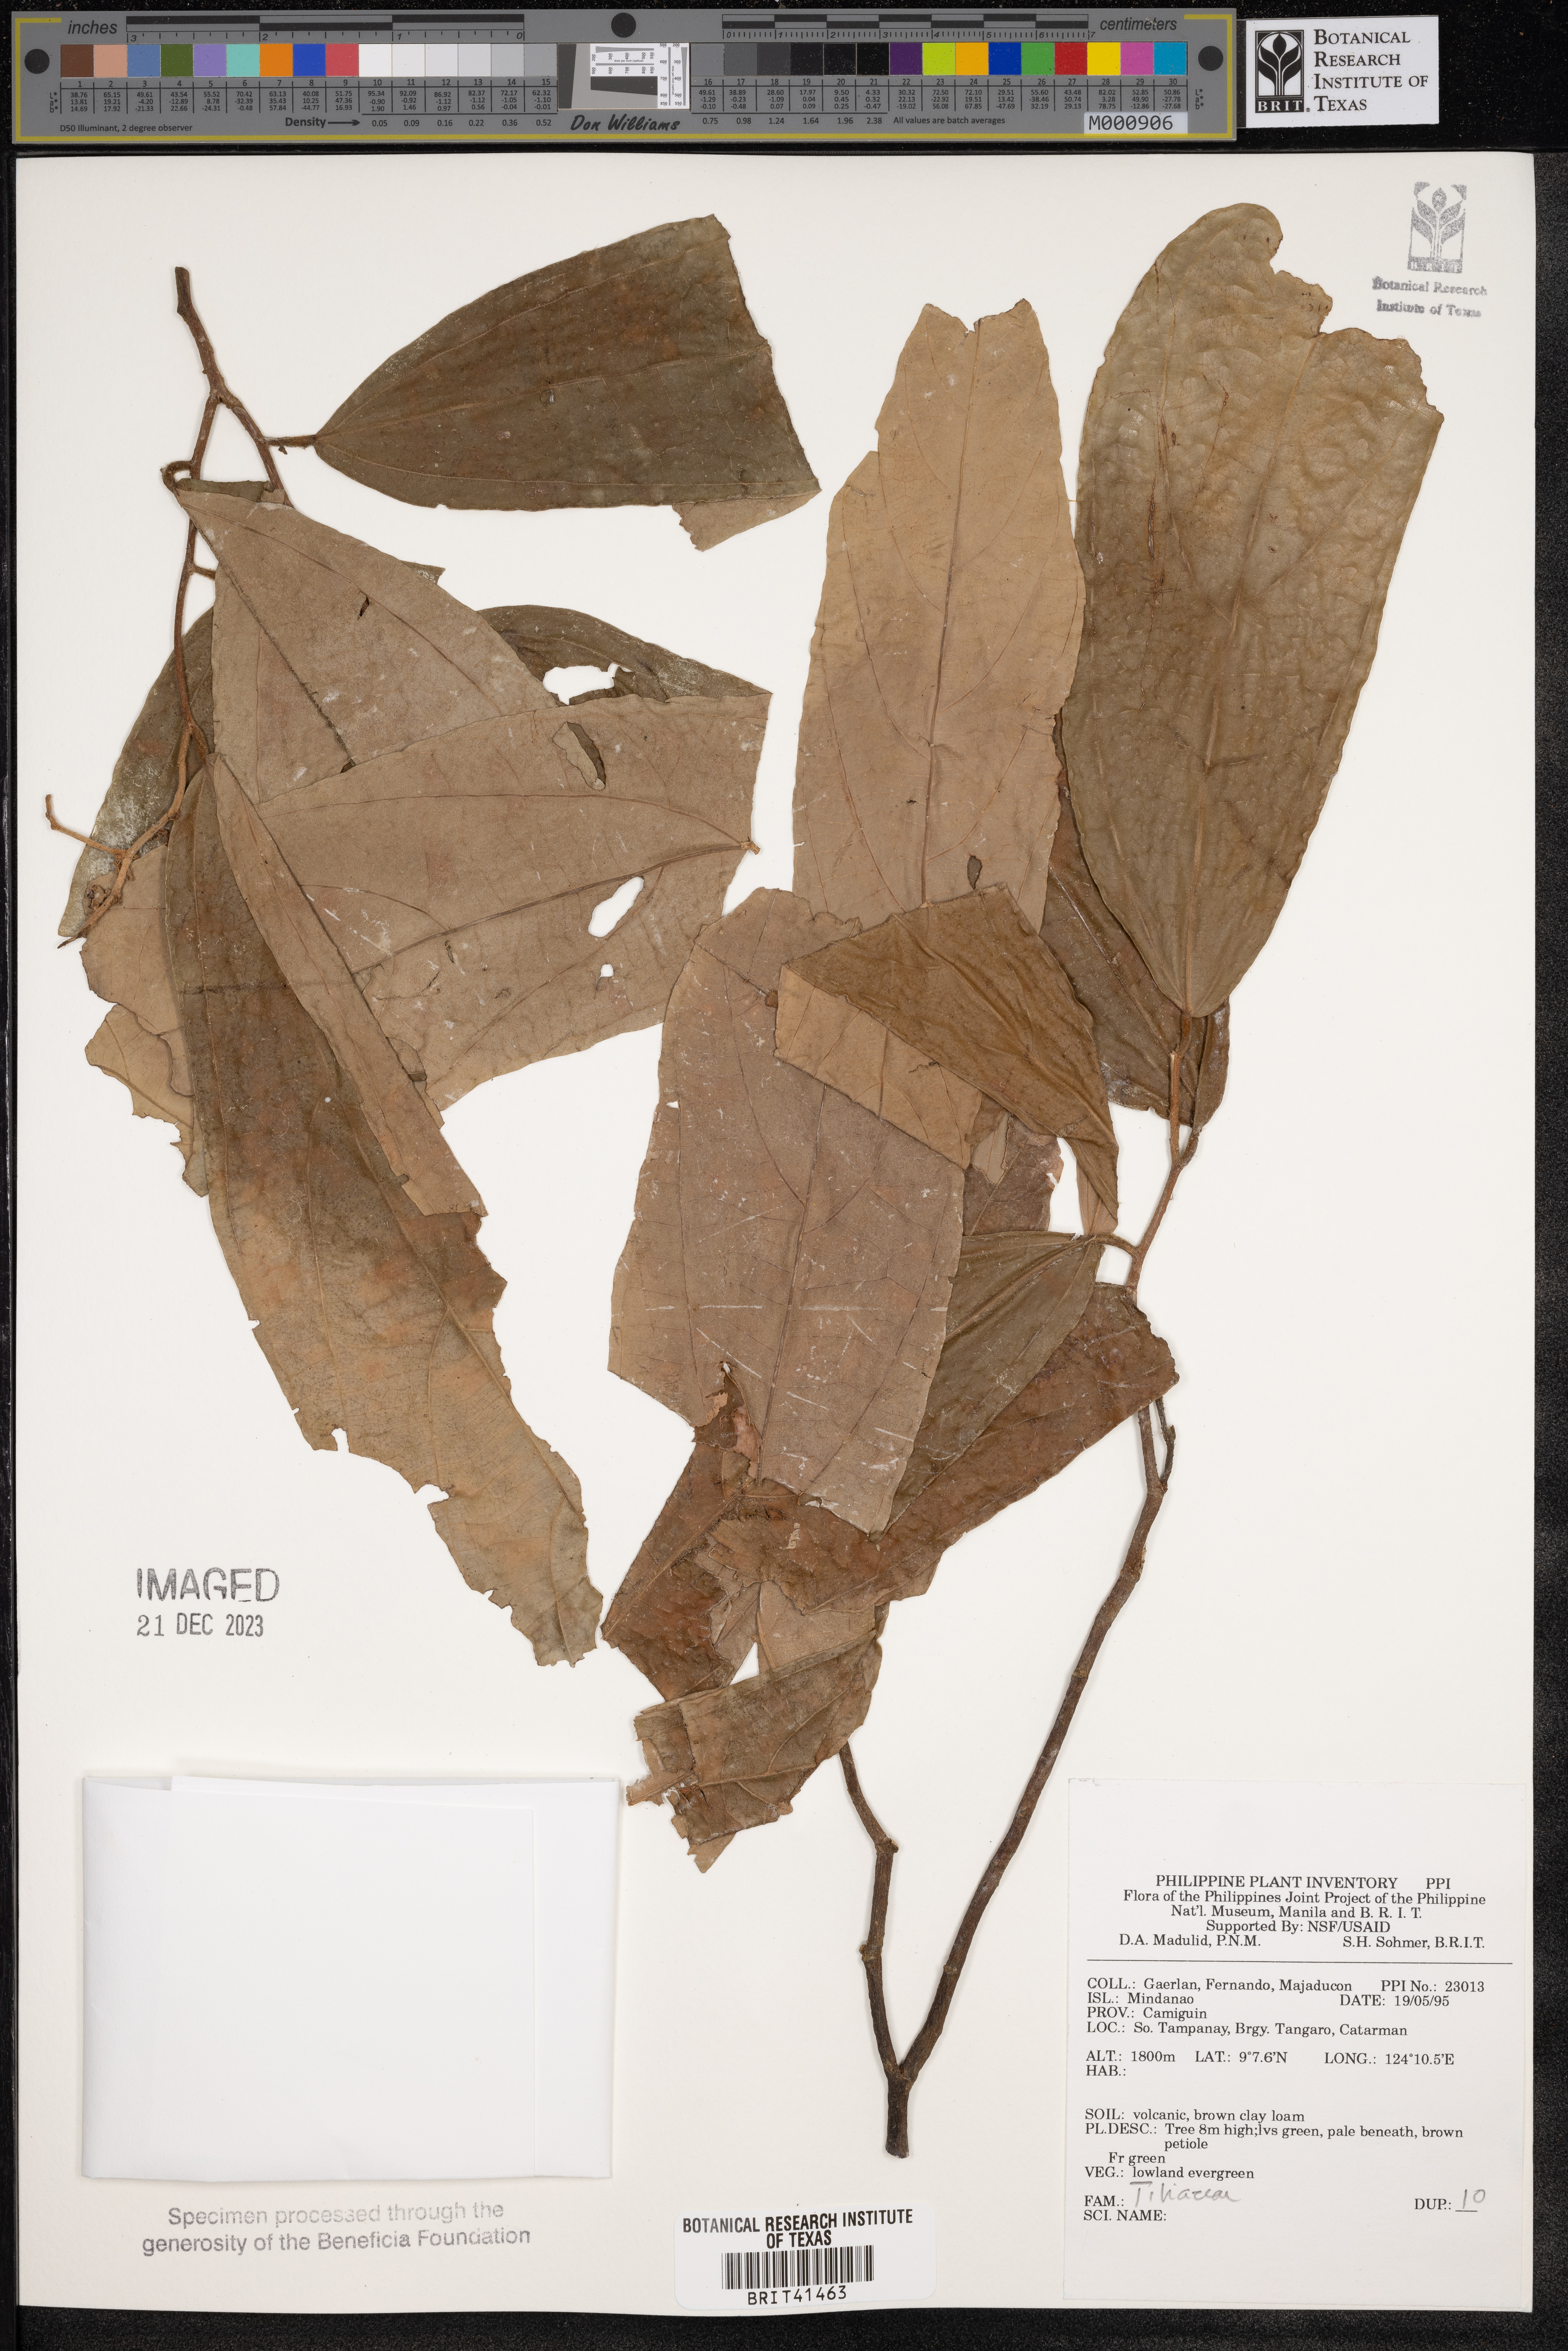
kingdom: Plantae
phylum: Tracheophyta
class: Magnoliopsida
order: Malvales
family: Tiliaceae
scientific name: Tiliaceae
